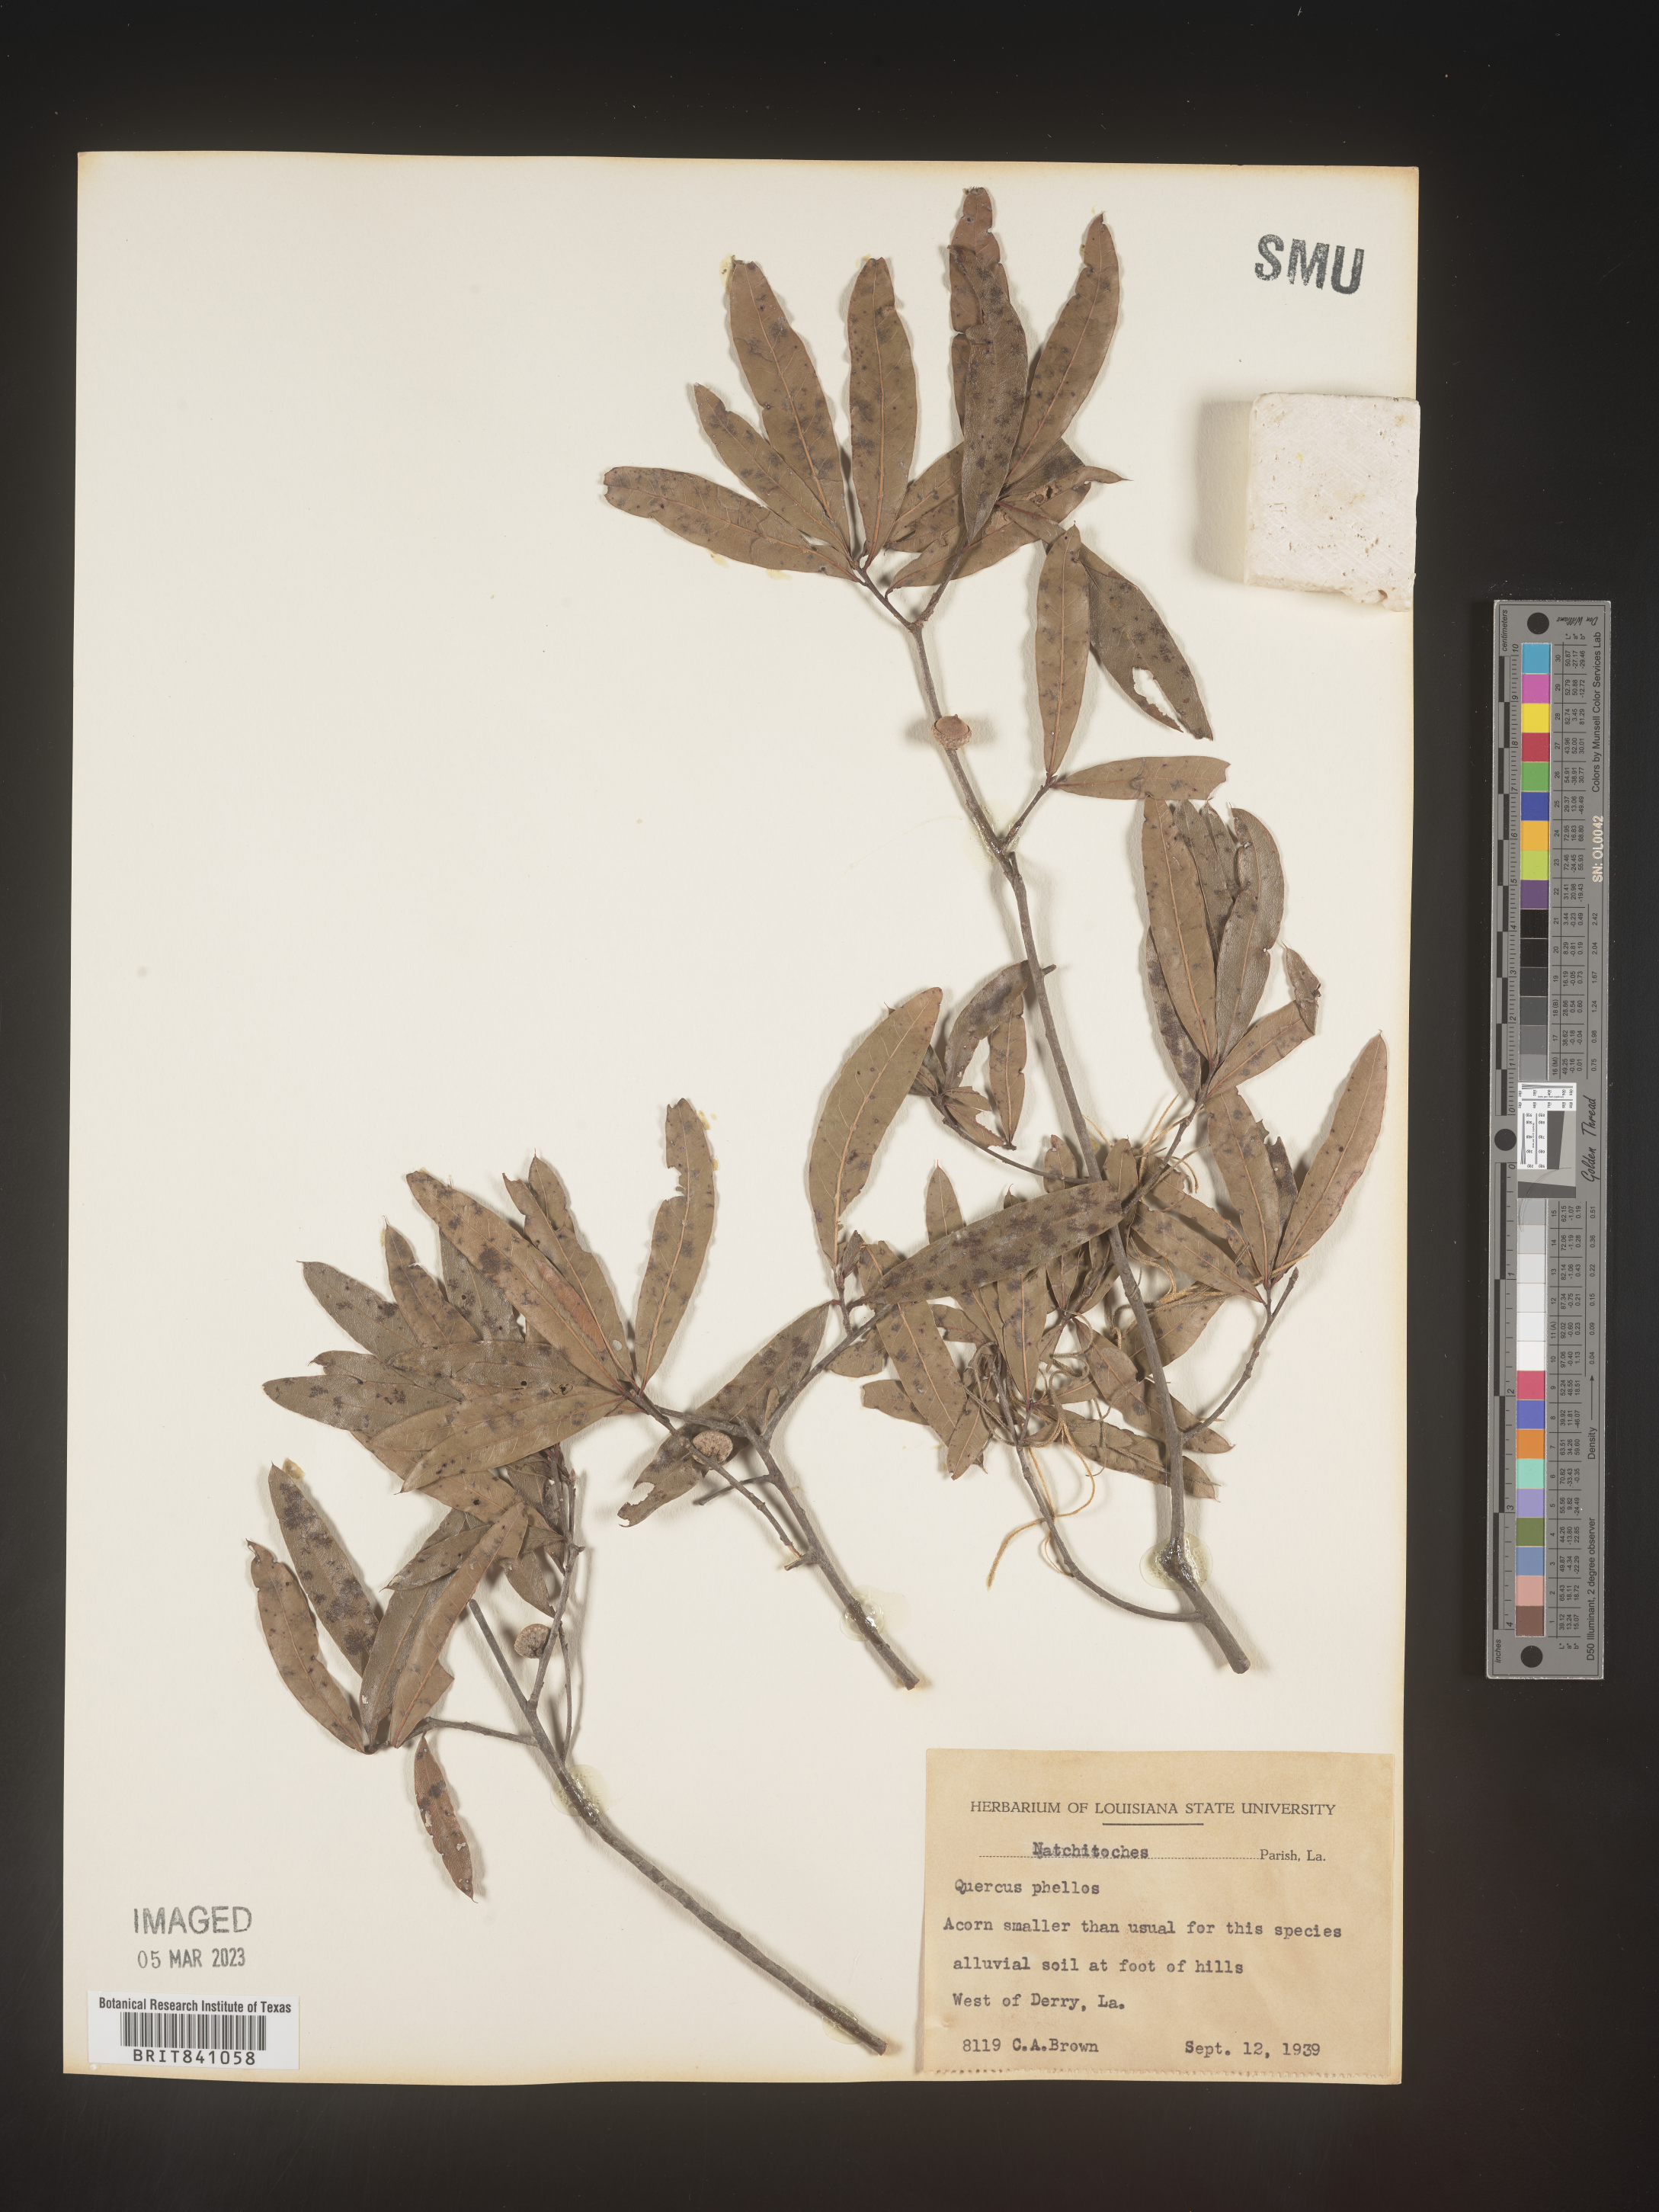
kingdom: Plantae
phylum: Tracheophyta
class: Magnoliopsida
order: Fagales
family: Fagaceae
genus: Quercus
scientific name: Quercus phellos
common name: Willow oak
